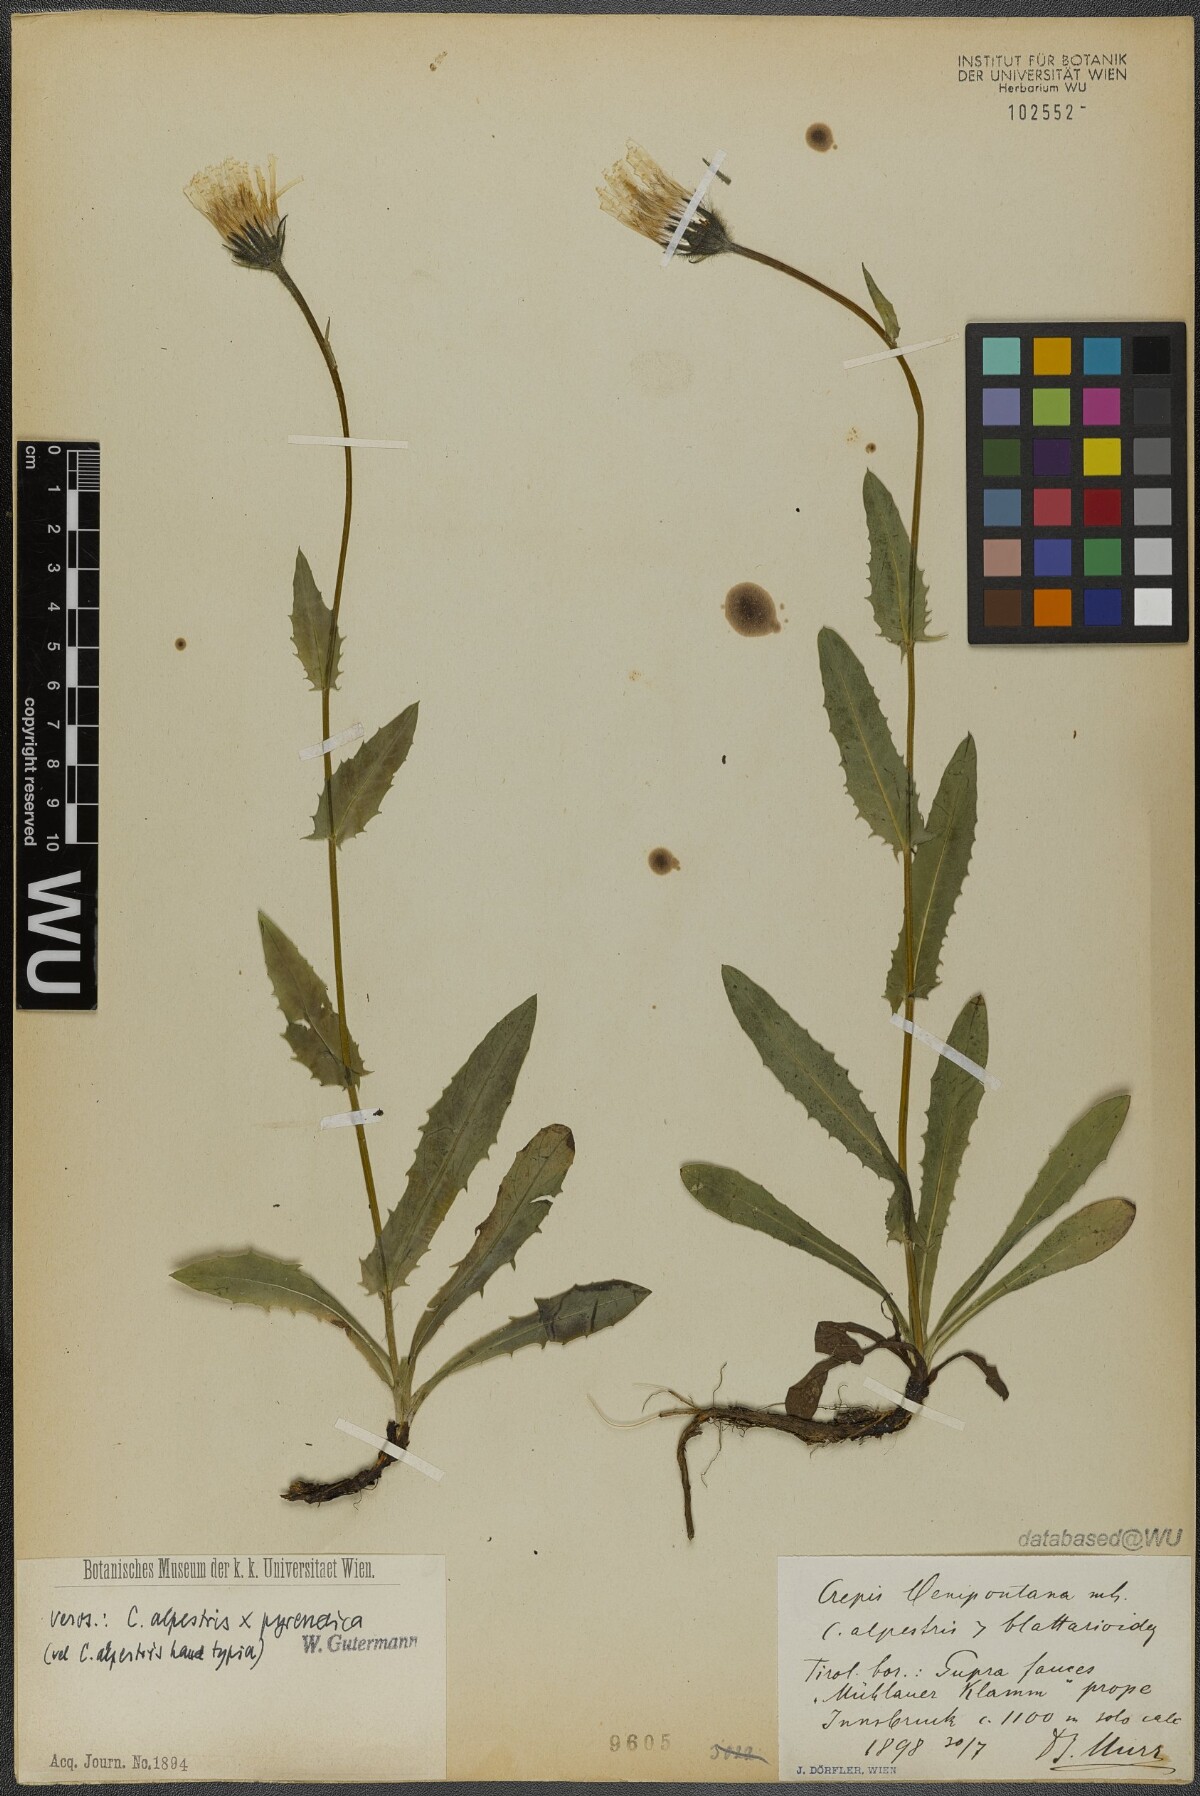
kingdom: Plantae
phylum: Tracheophyta
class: Magnoliopsida
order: Asterales
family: Asteraceae
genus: Crepis
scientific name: Crepis oenipontana
